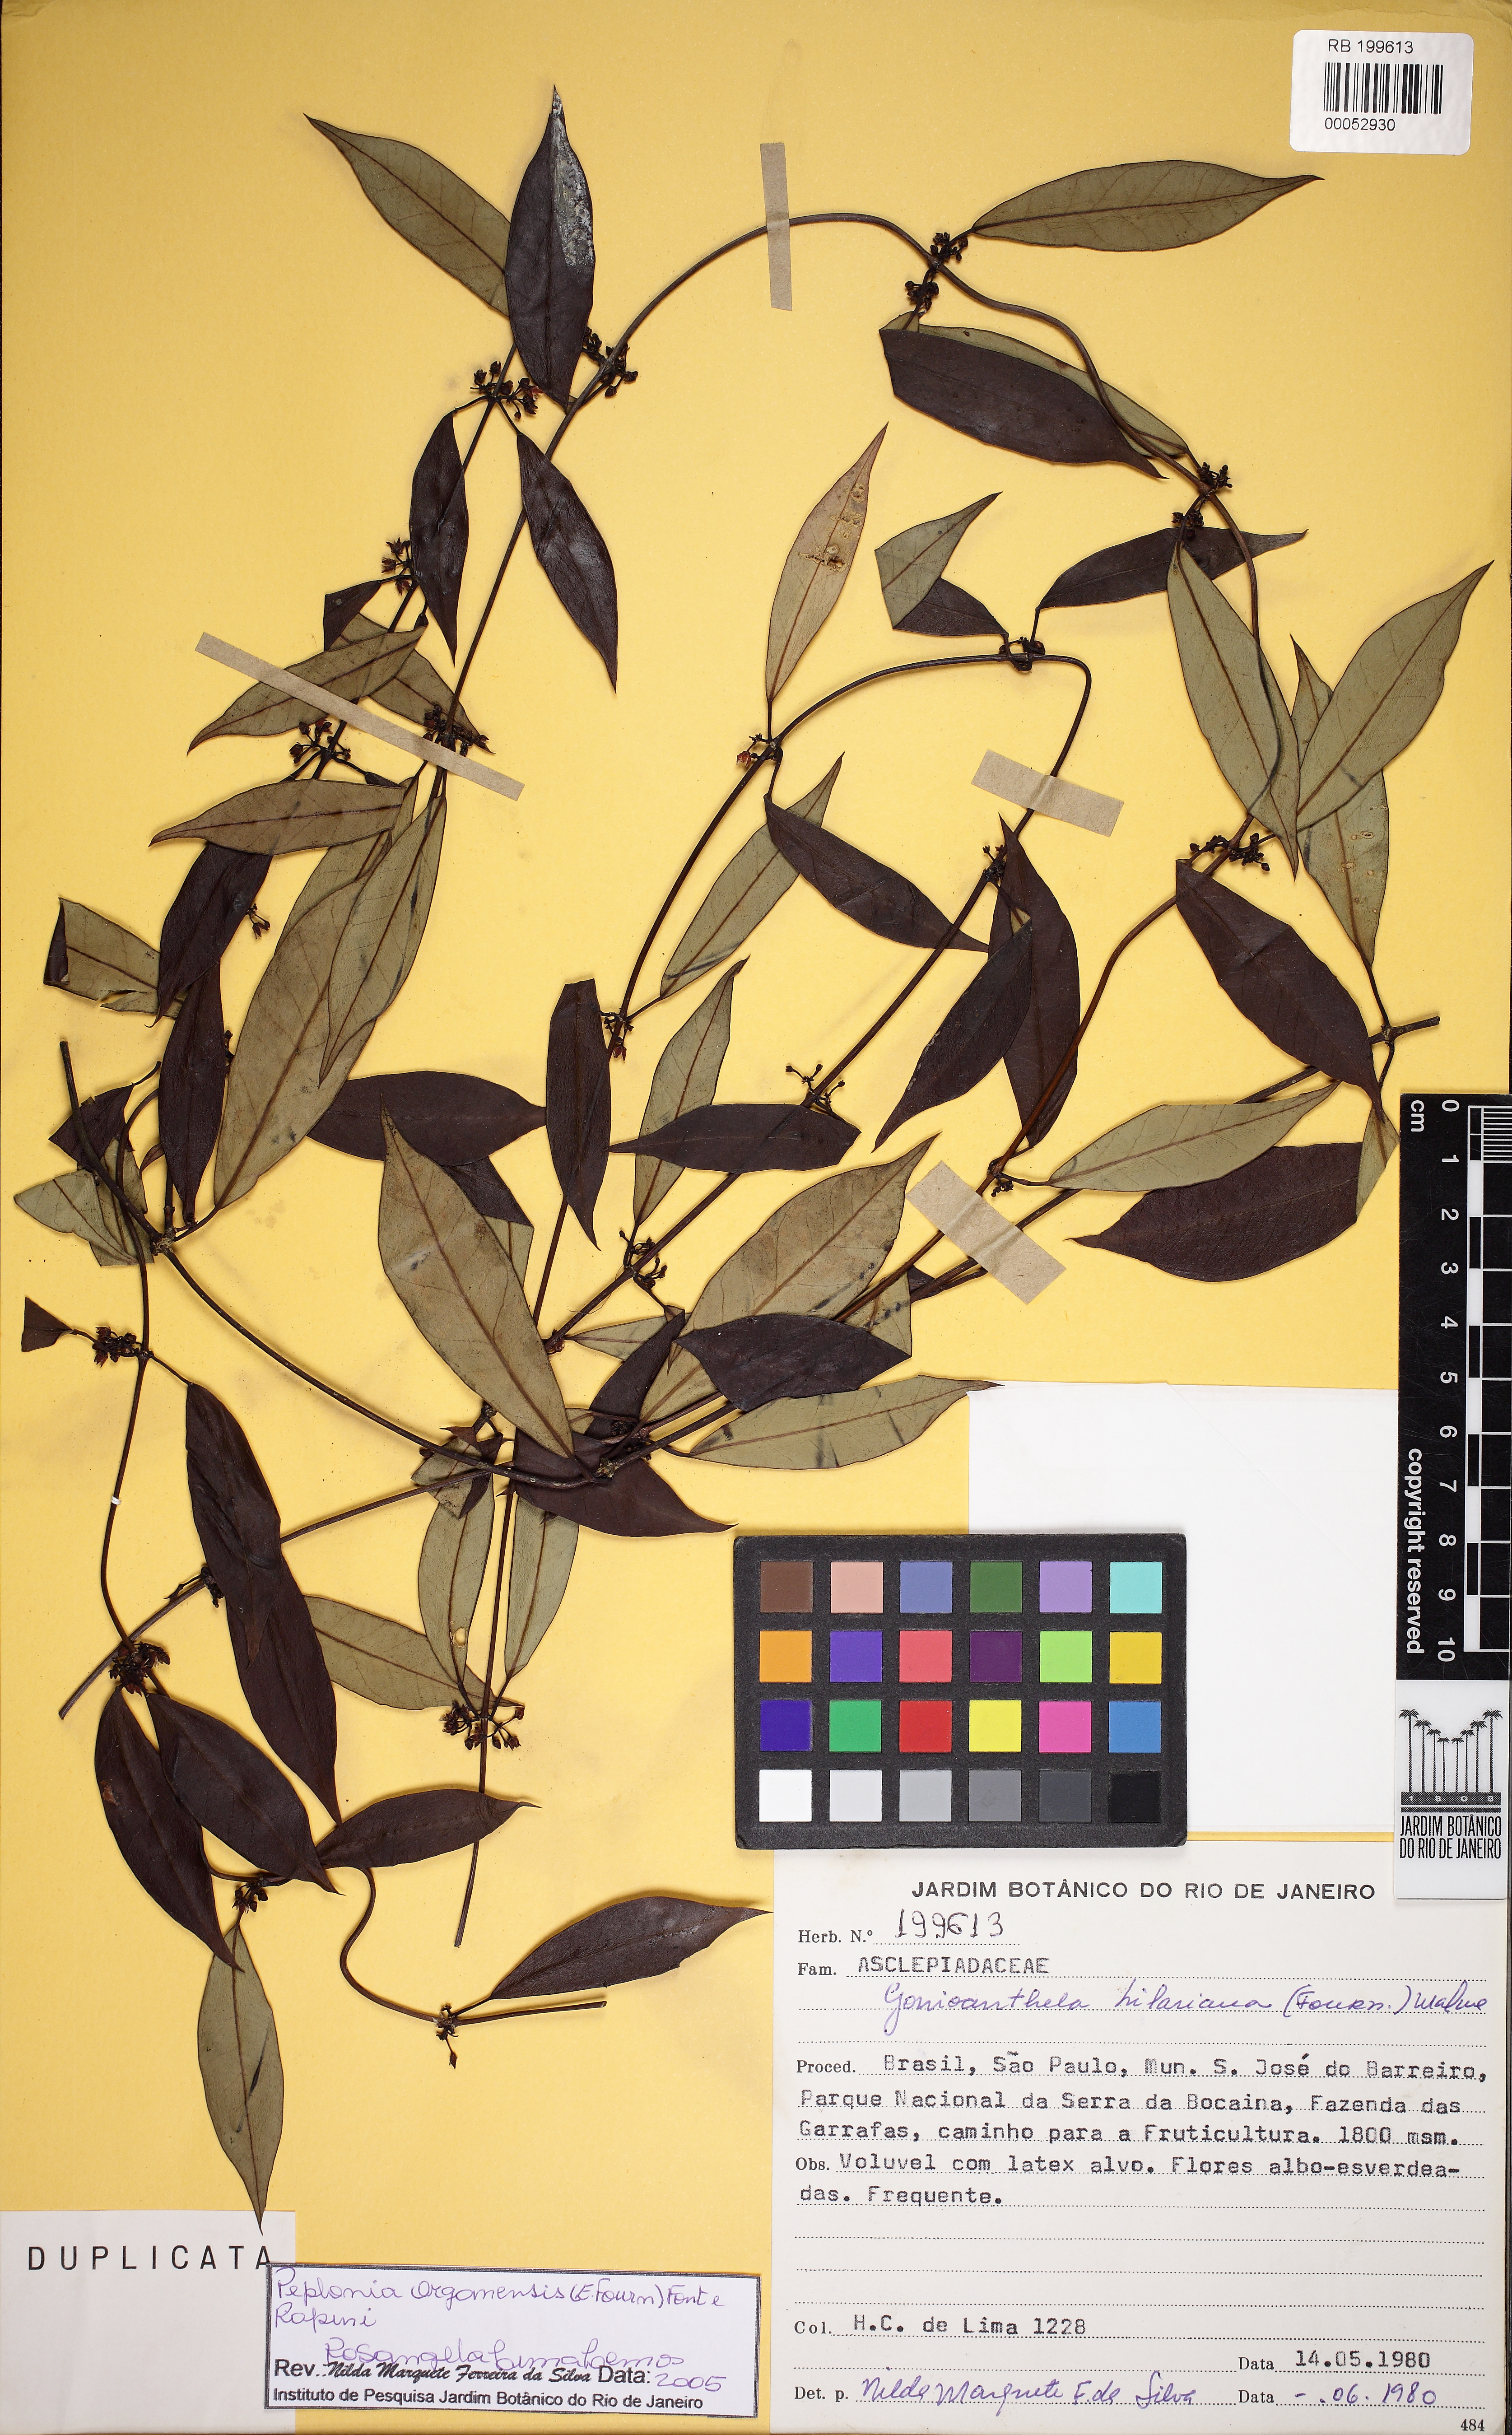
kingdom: Plantae
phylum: Tracheophyta
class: Magnoliopsida
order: Gentianales
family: Apocynaceae
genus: Peplonia
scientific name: Peplonia organensis
